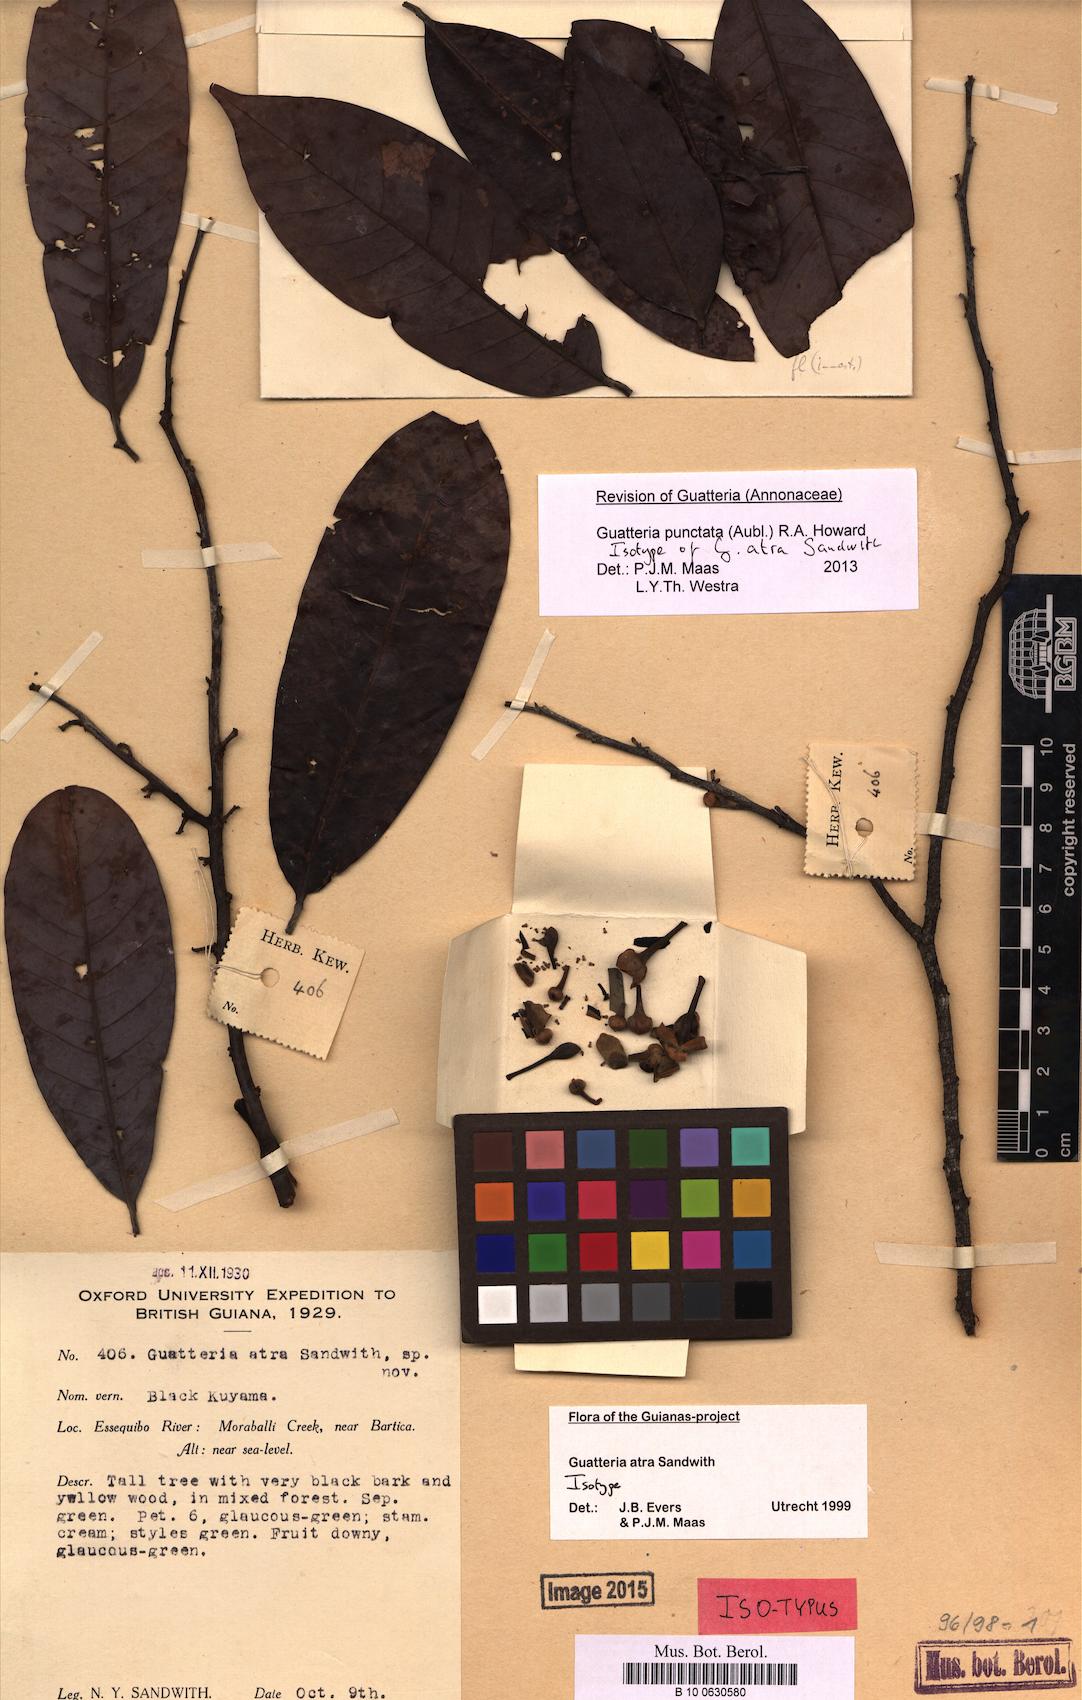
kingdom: Plantae
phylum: Tracheophyta
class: Magnoliopsida
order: Magnoliales
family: Annonaceae
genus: Guatteria
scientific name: Guatteria punctata
